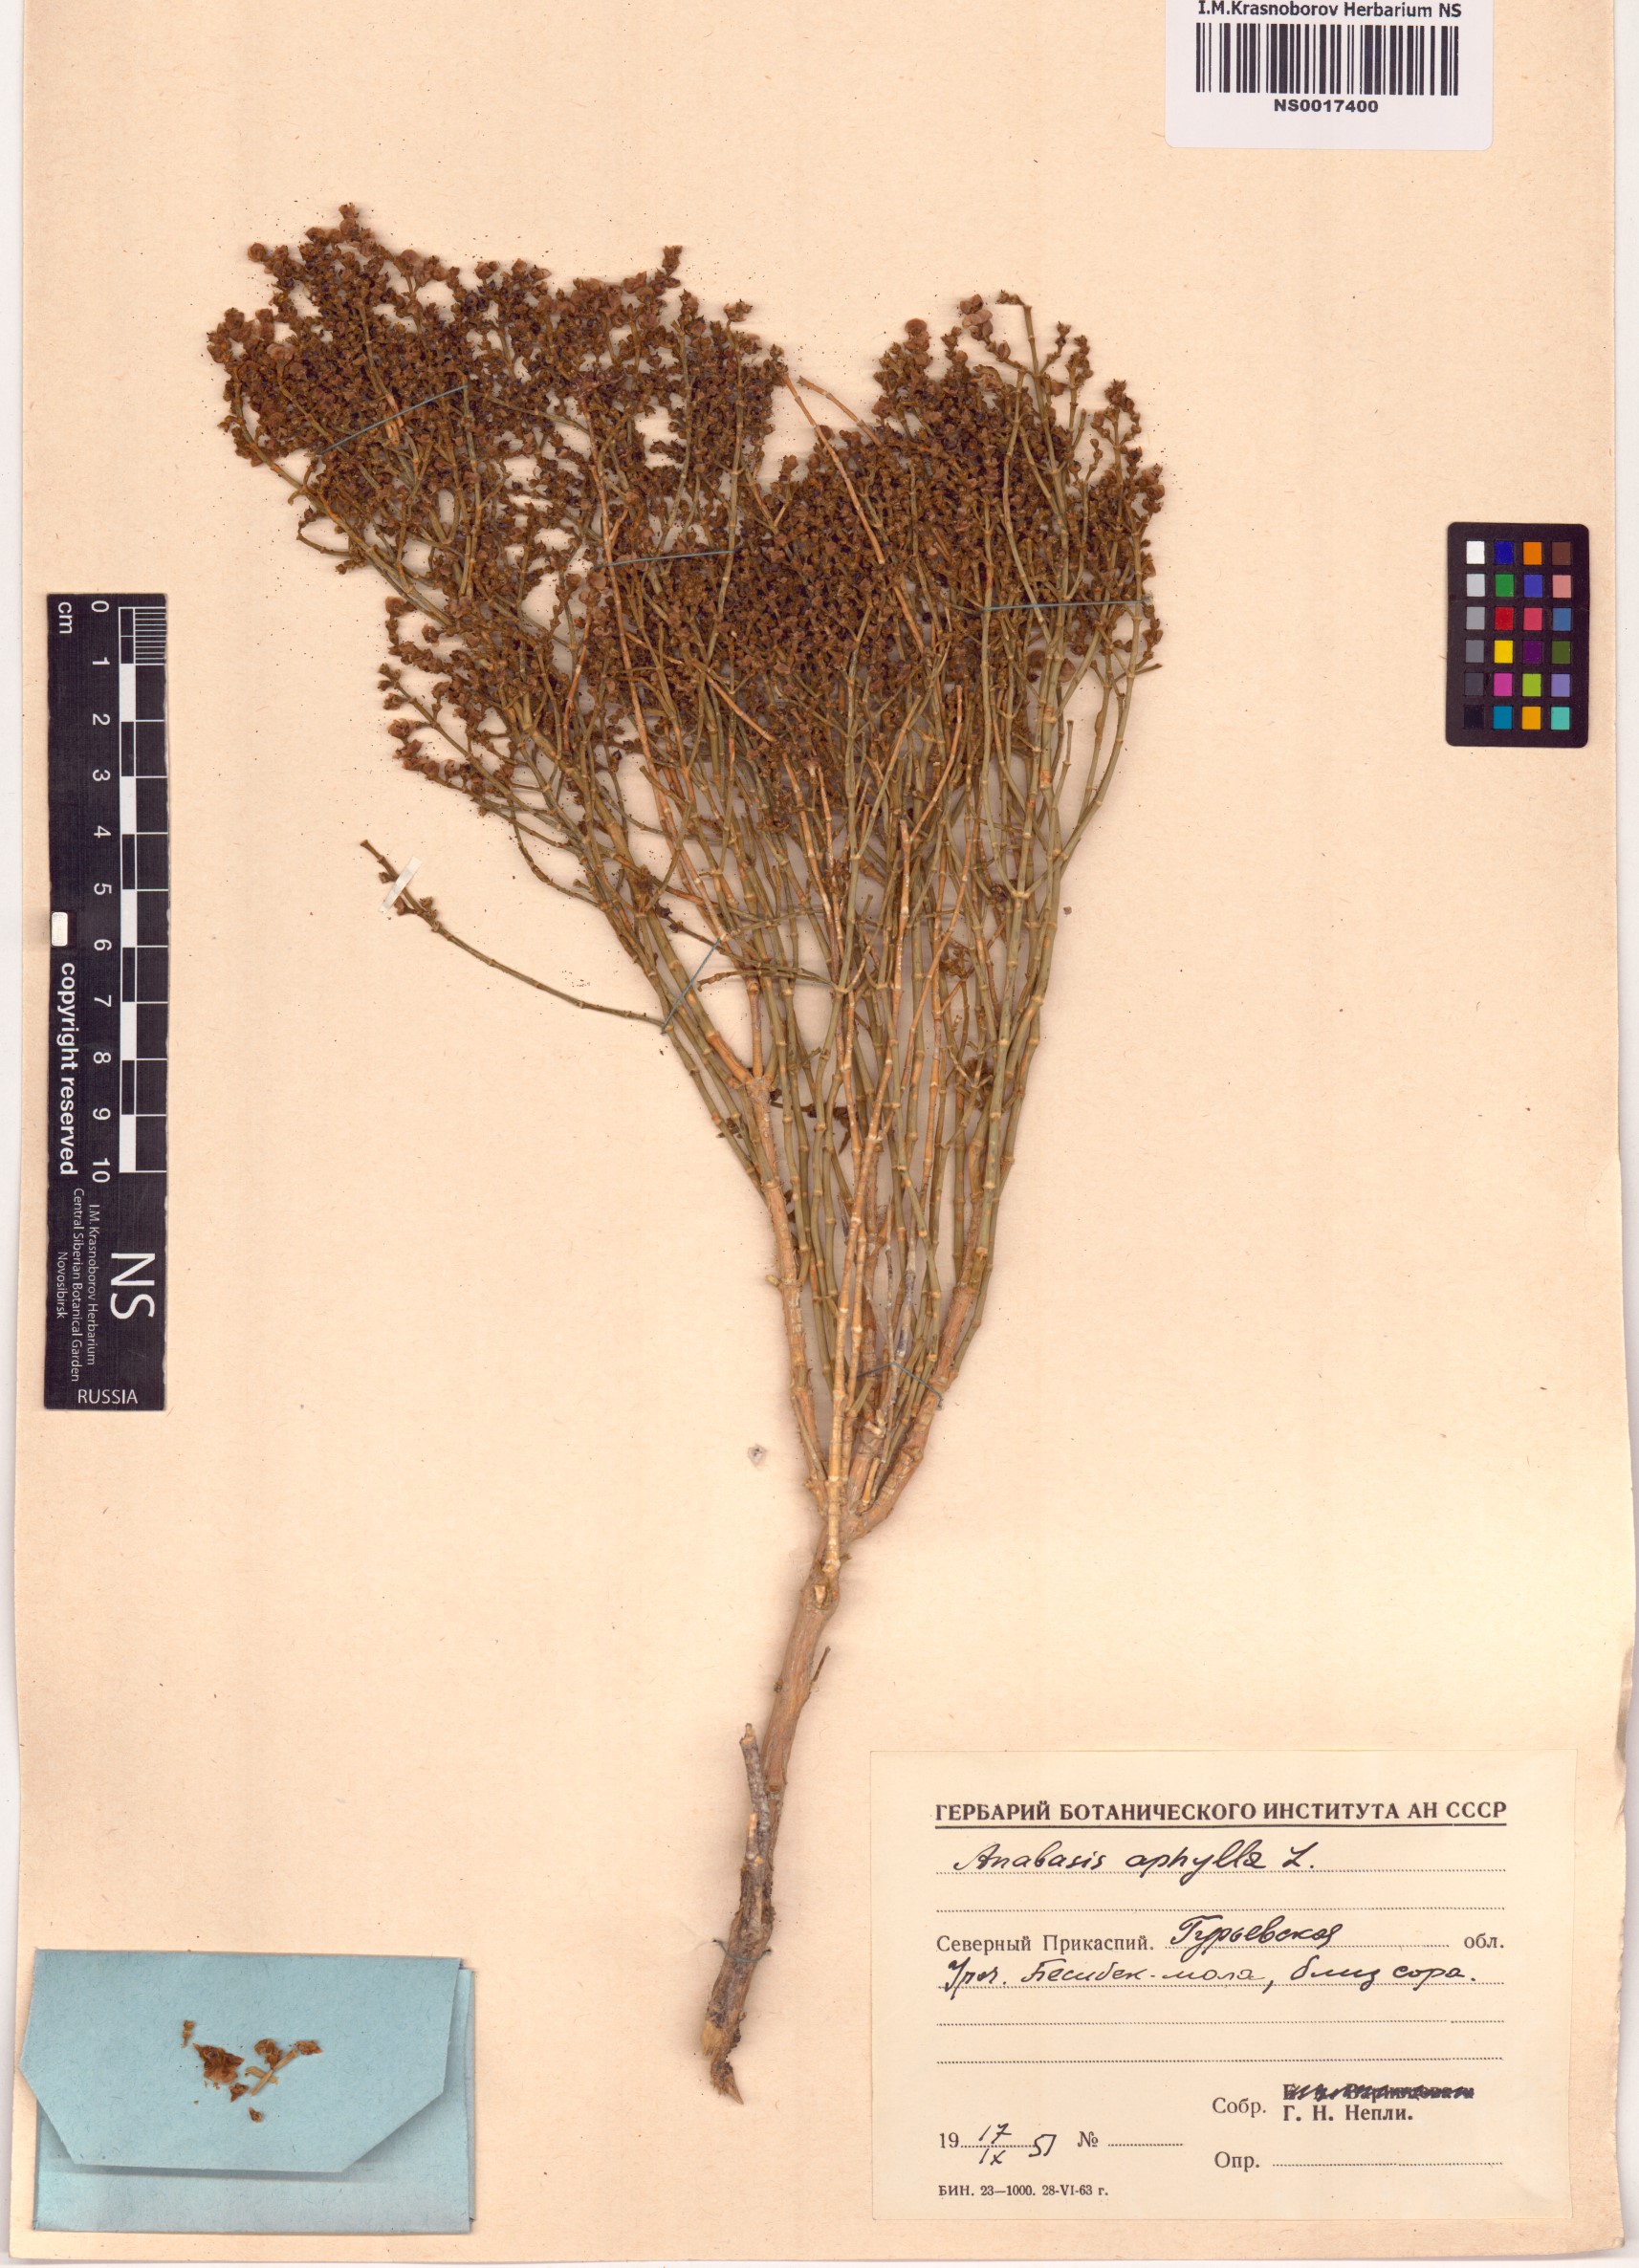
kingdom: Plantae
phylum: Tracheophyta
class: Magnoliopsida
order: Caryophyllales
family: Amaranthaceae
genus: Anabasis
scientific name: Anabasis aphylla
